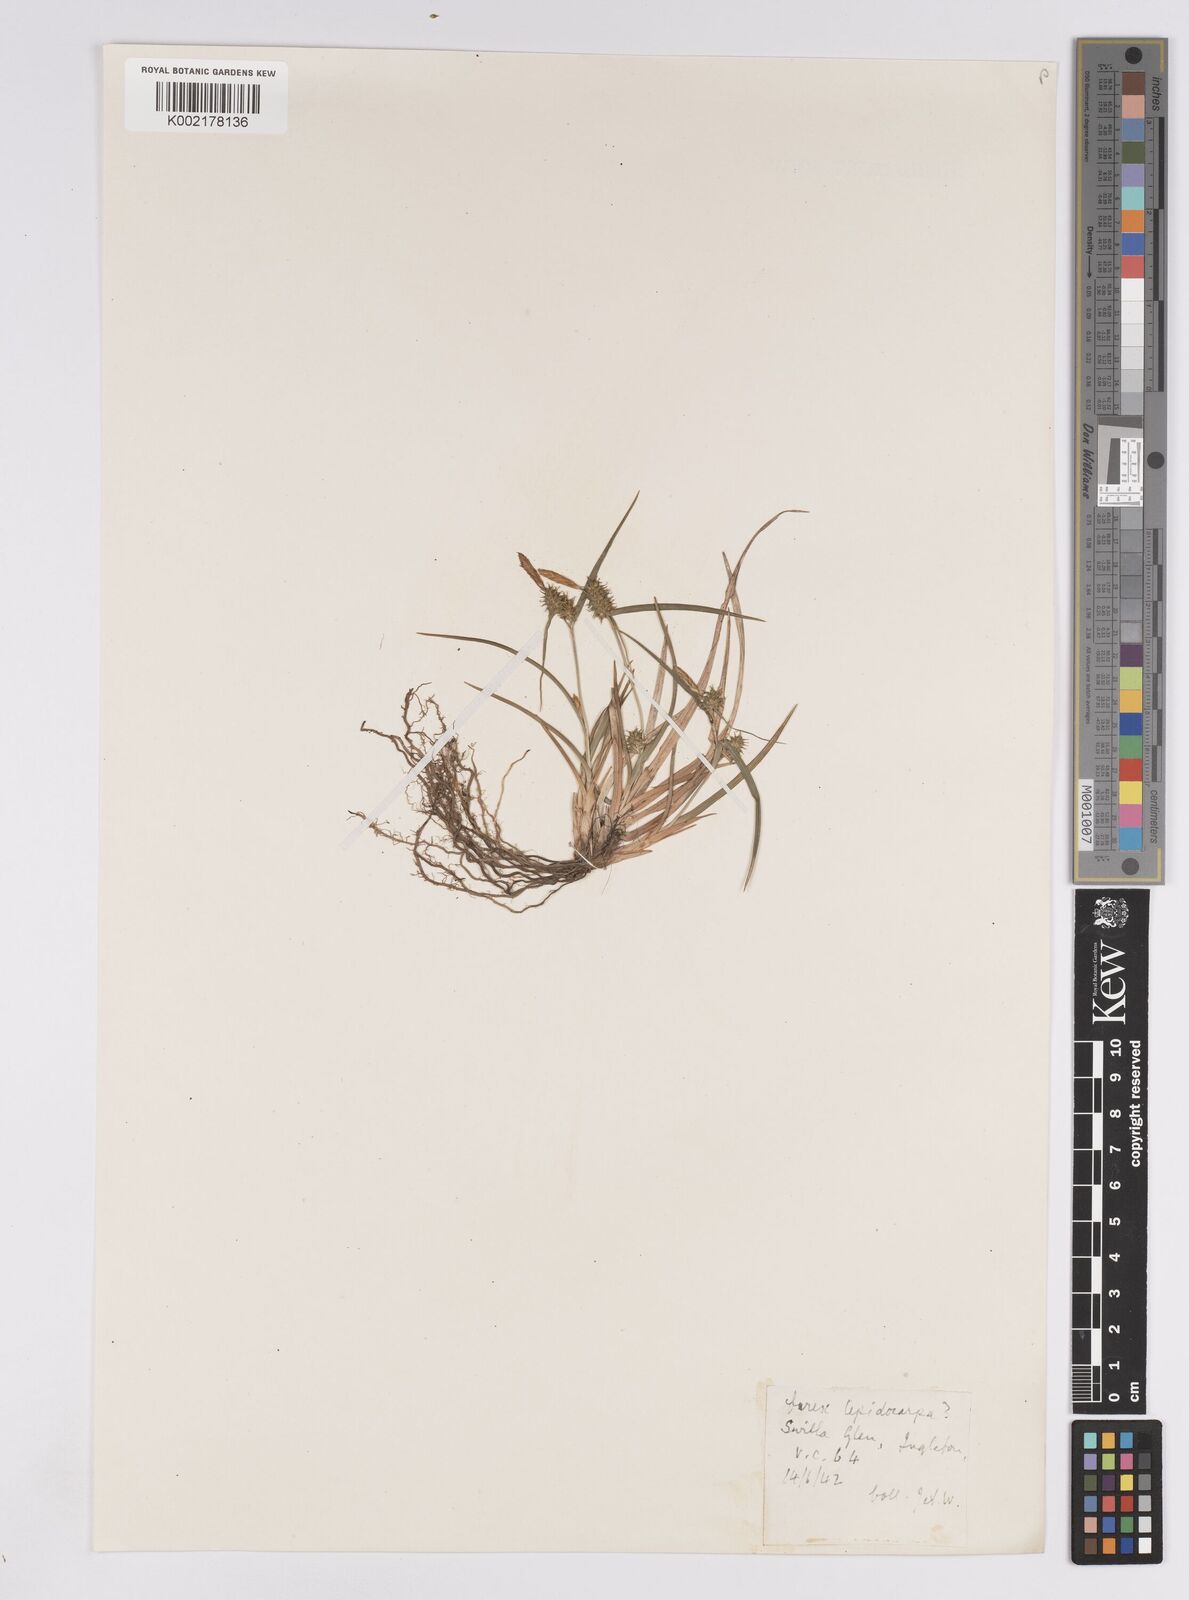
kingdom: Plantae
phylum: Tracheophyta
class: Liliopsida
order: Poales
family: Cyperaceae
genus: Carex
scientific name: Carex demissa
